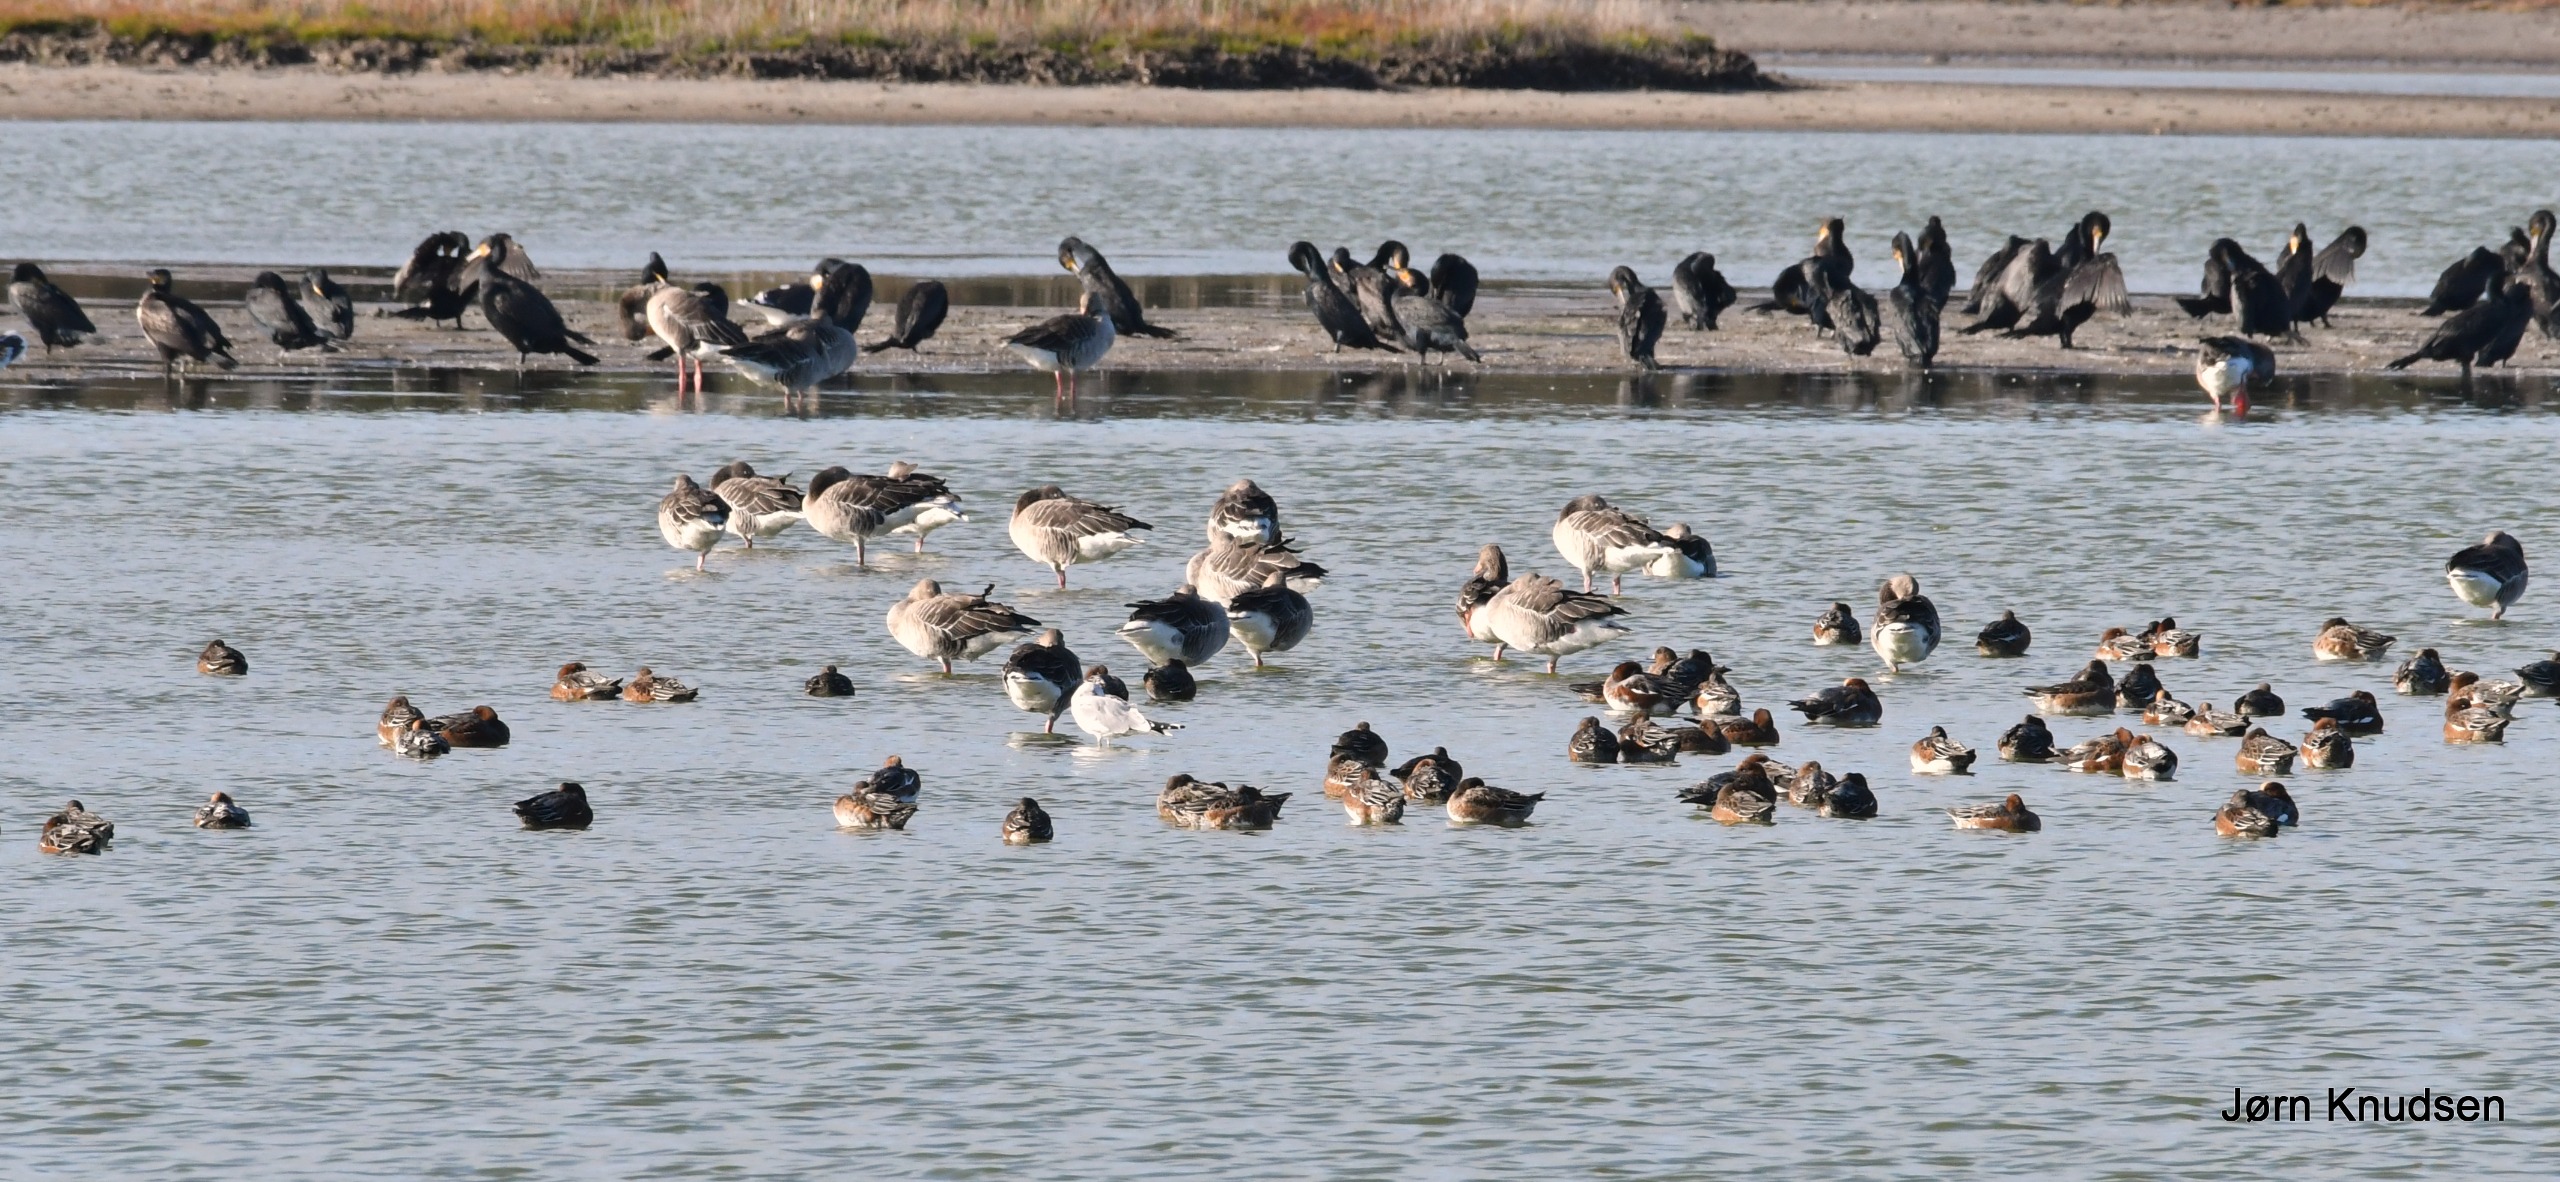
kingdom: Animalia
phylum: Chordata
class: Aves
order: Anseriformes
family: Anatidae
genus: Mareca
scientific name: Mareca penelope
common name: Pibeand
